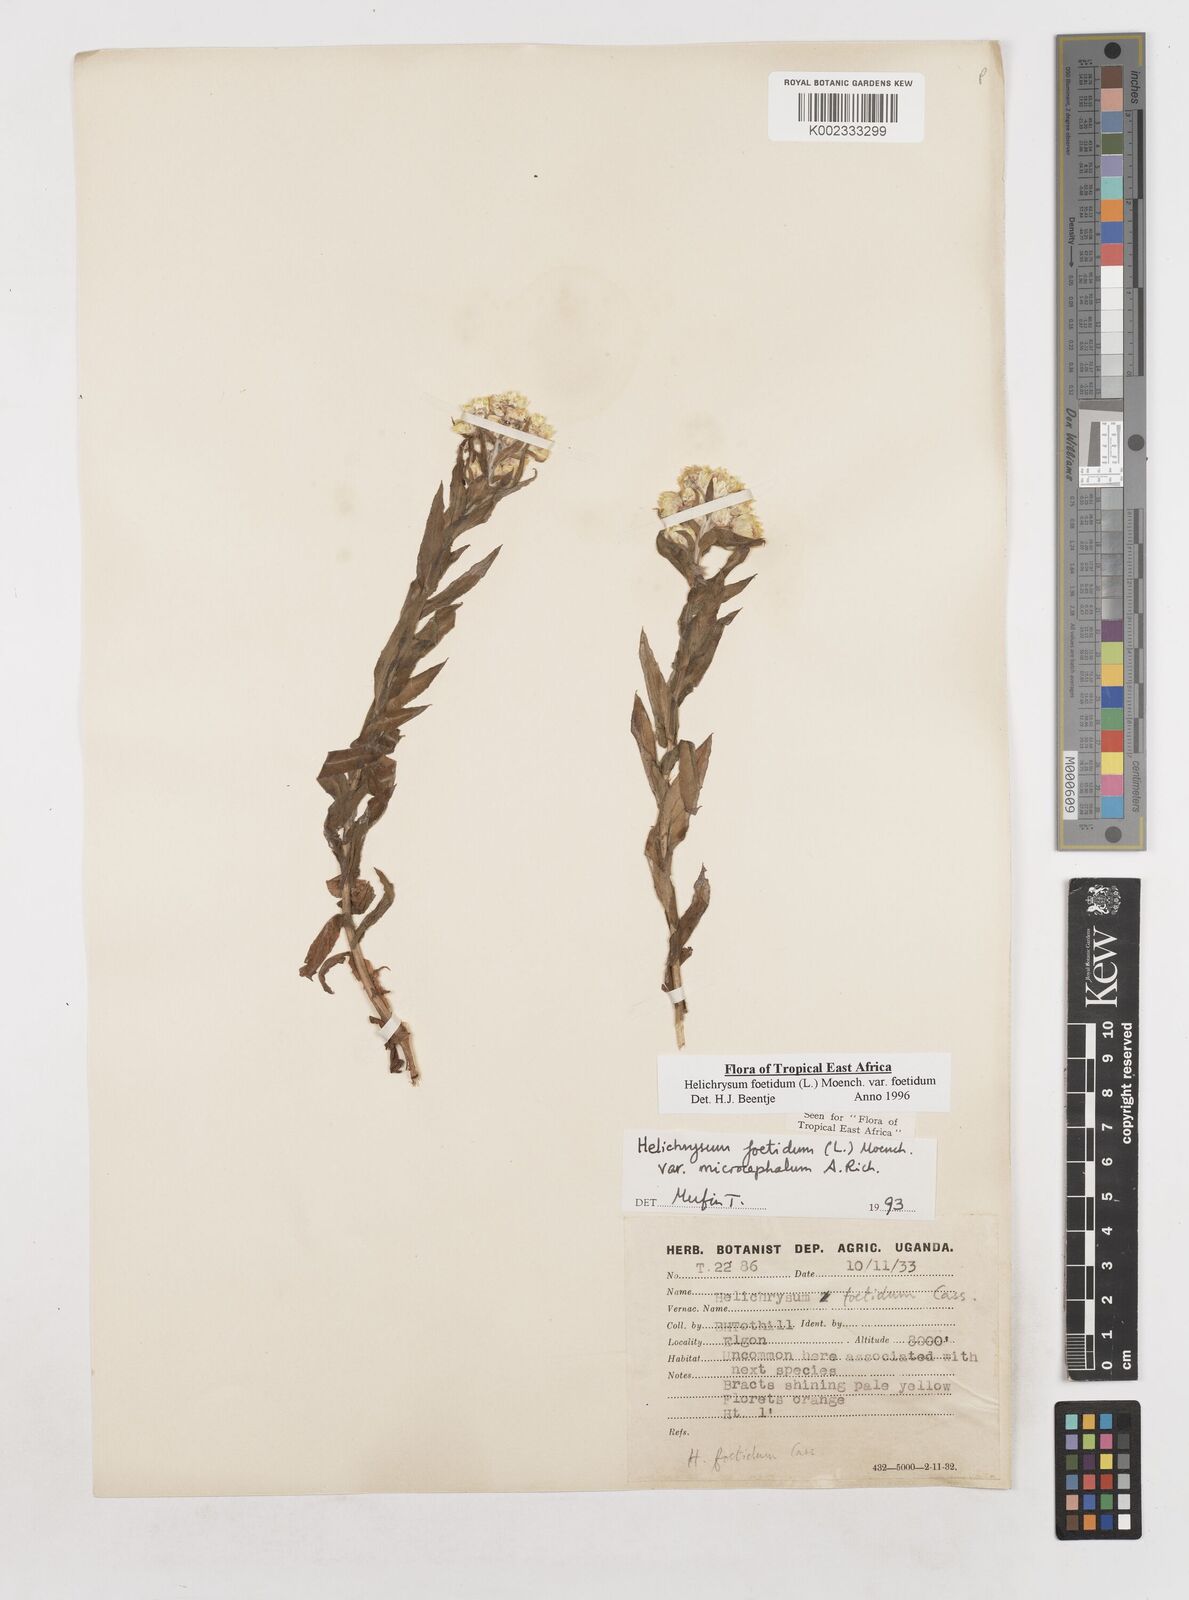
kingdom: Plantae
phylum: Tracheophyta
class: Magnoliopsida
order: Asterales
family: Asteraceae
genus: Helichrysum
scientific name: Helichrysum foetidum
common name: Stinking everlasting
